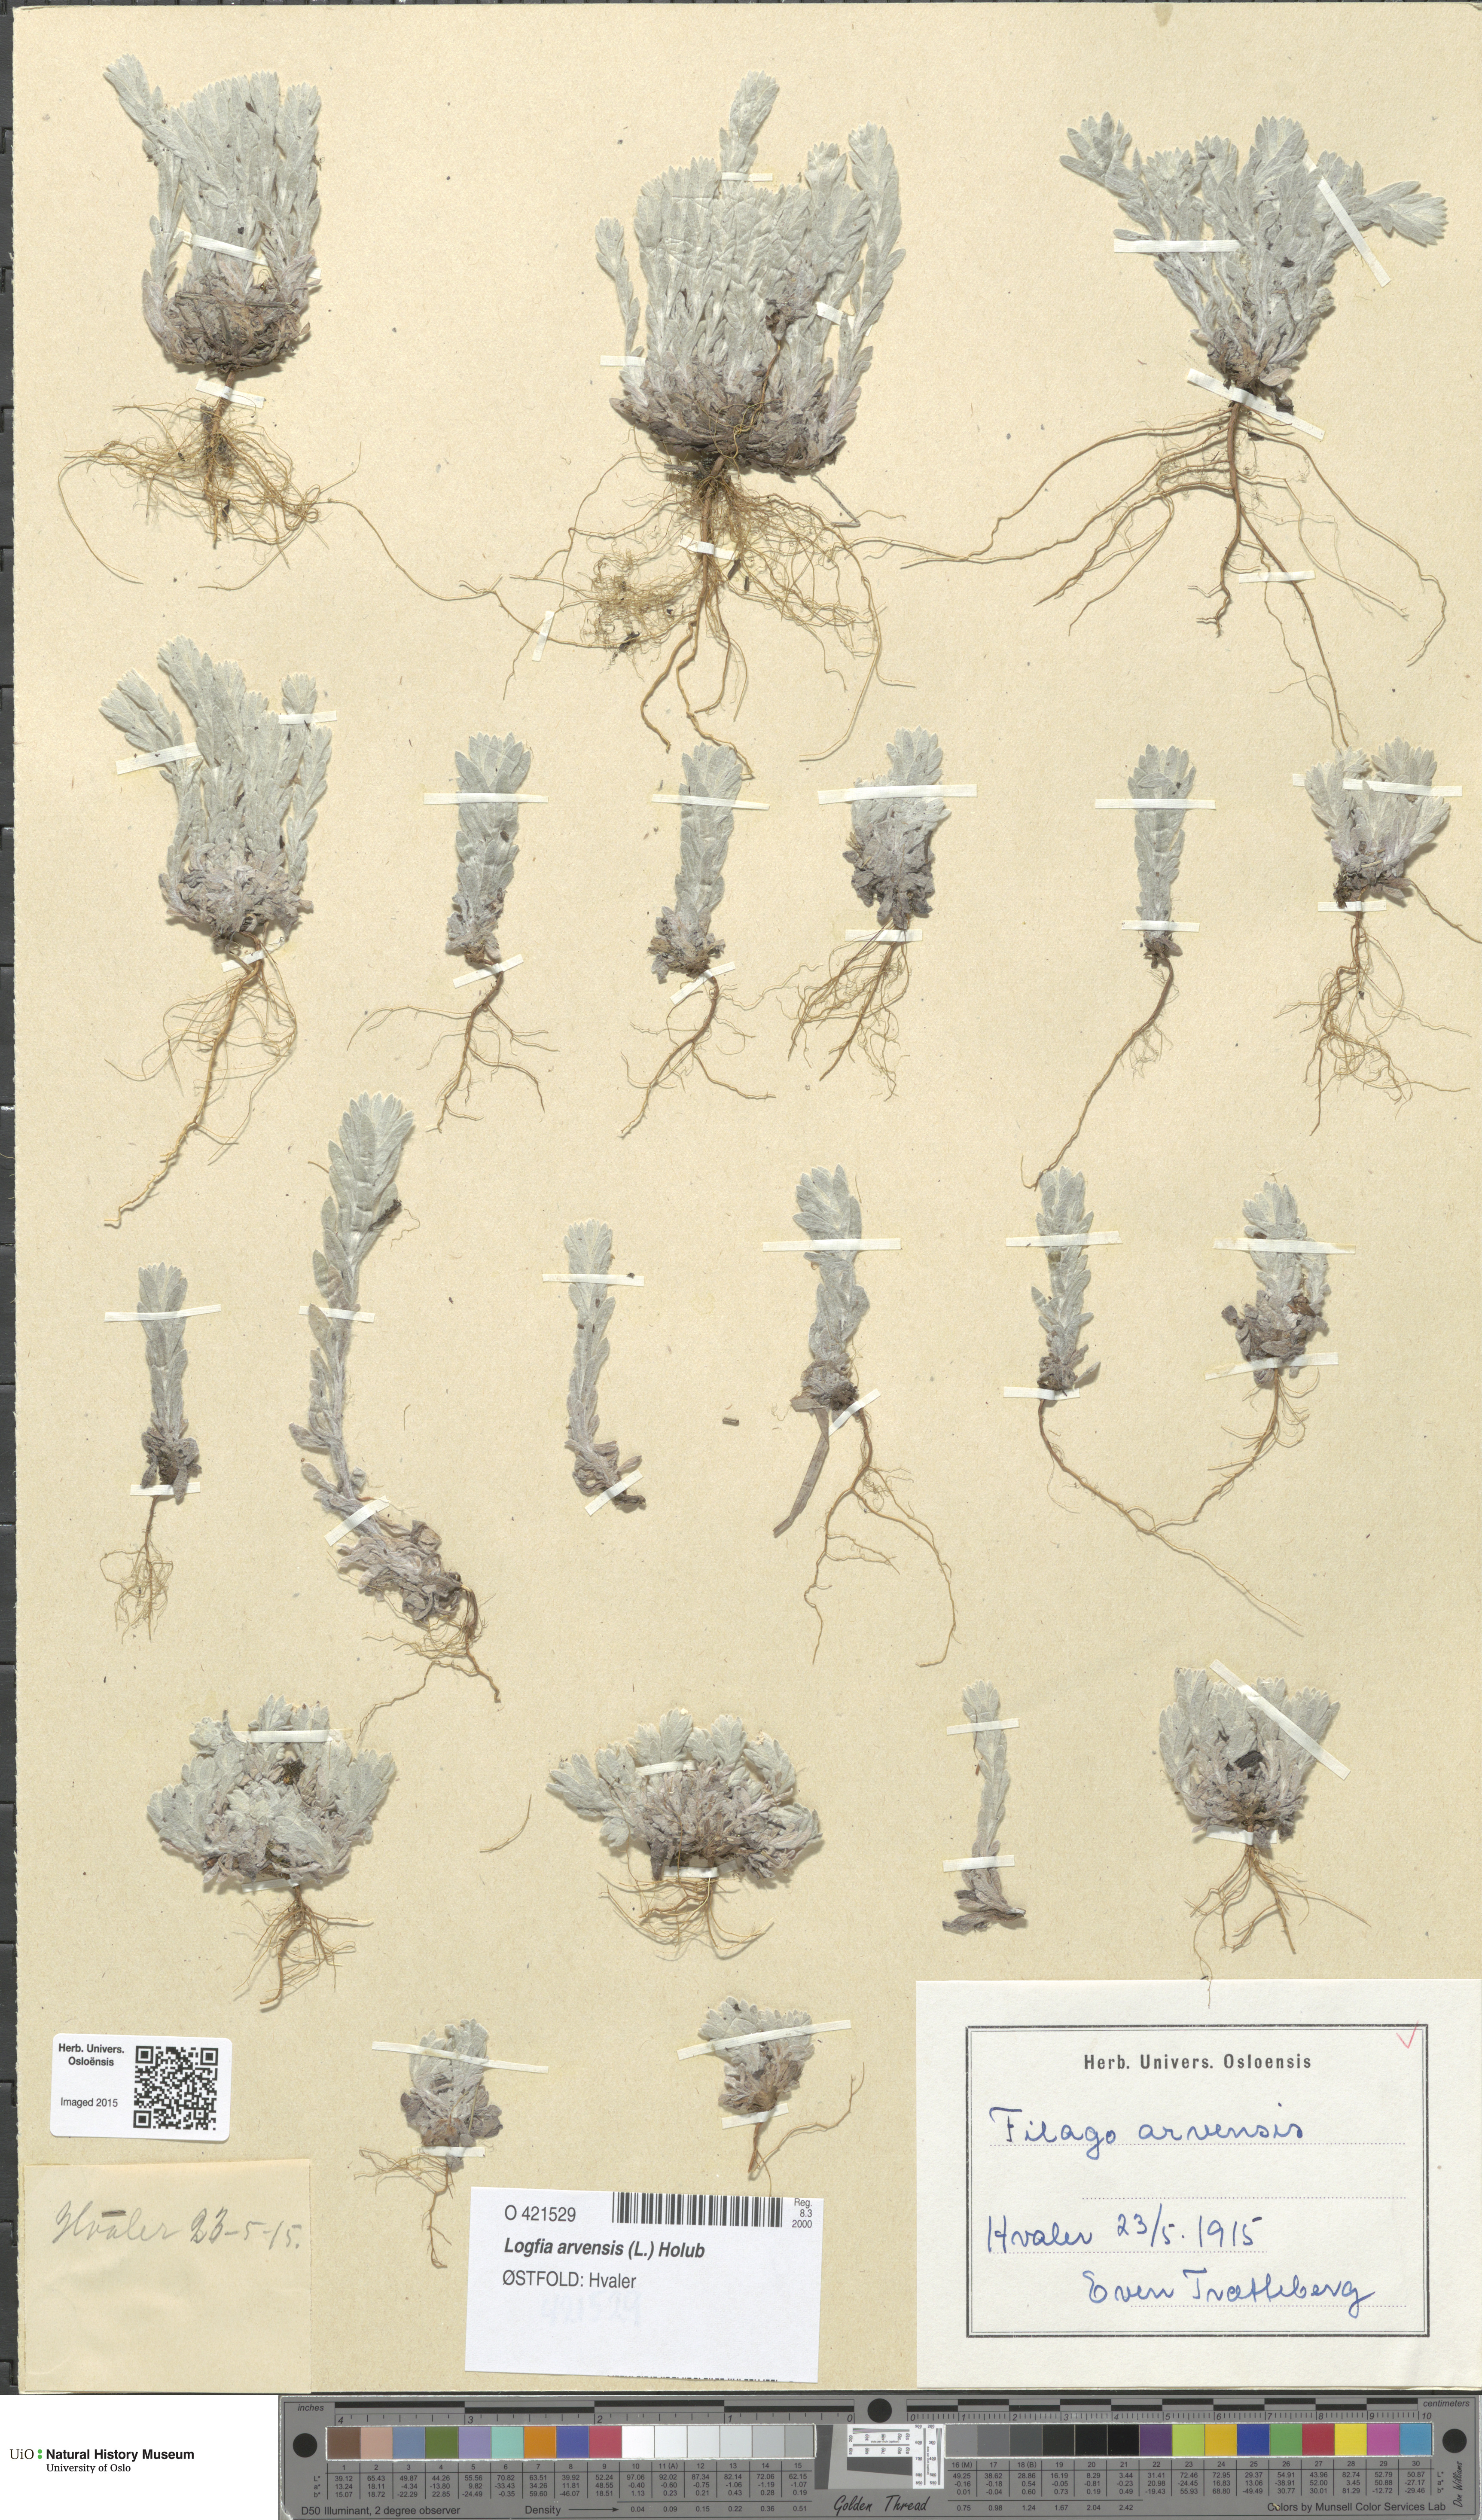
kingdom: Plantae
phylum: Tracheophyta
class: Magnoliopsida
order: Asterales
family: Asteraceae
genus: Filago
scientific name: Filago arvensis
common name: Field cudweed
